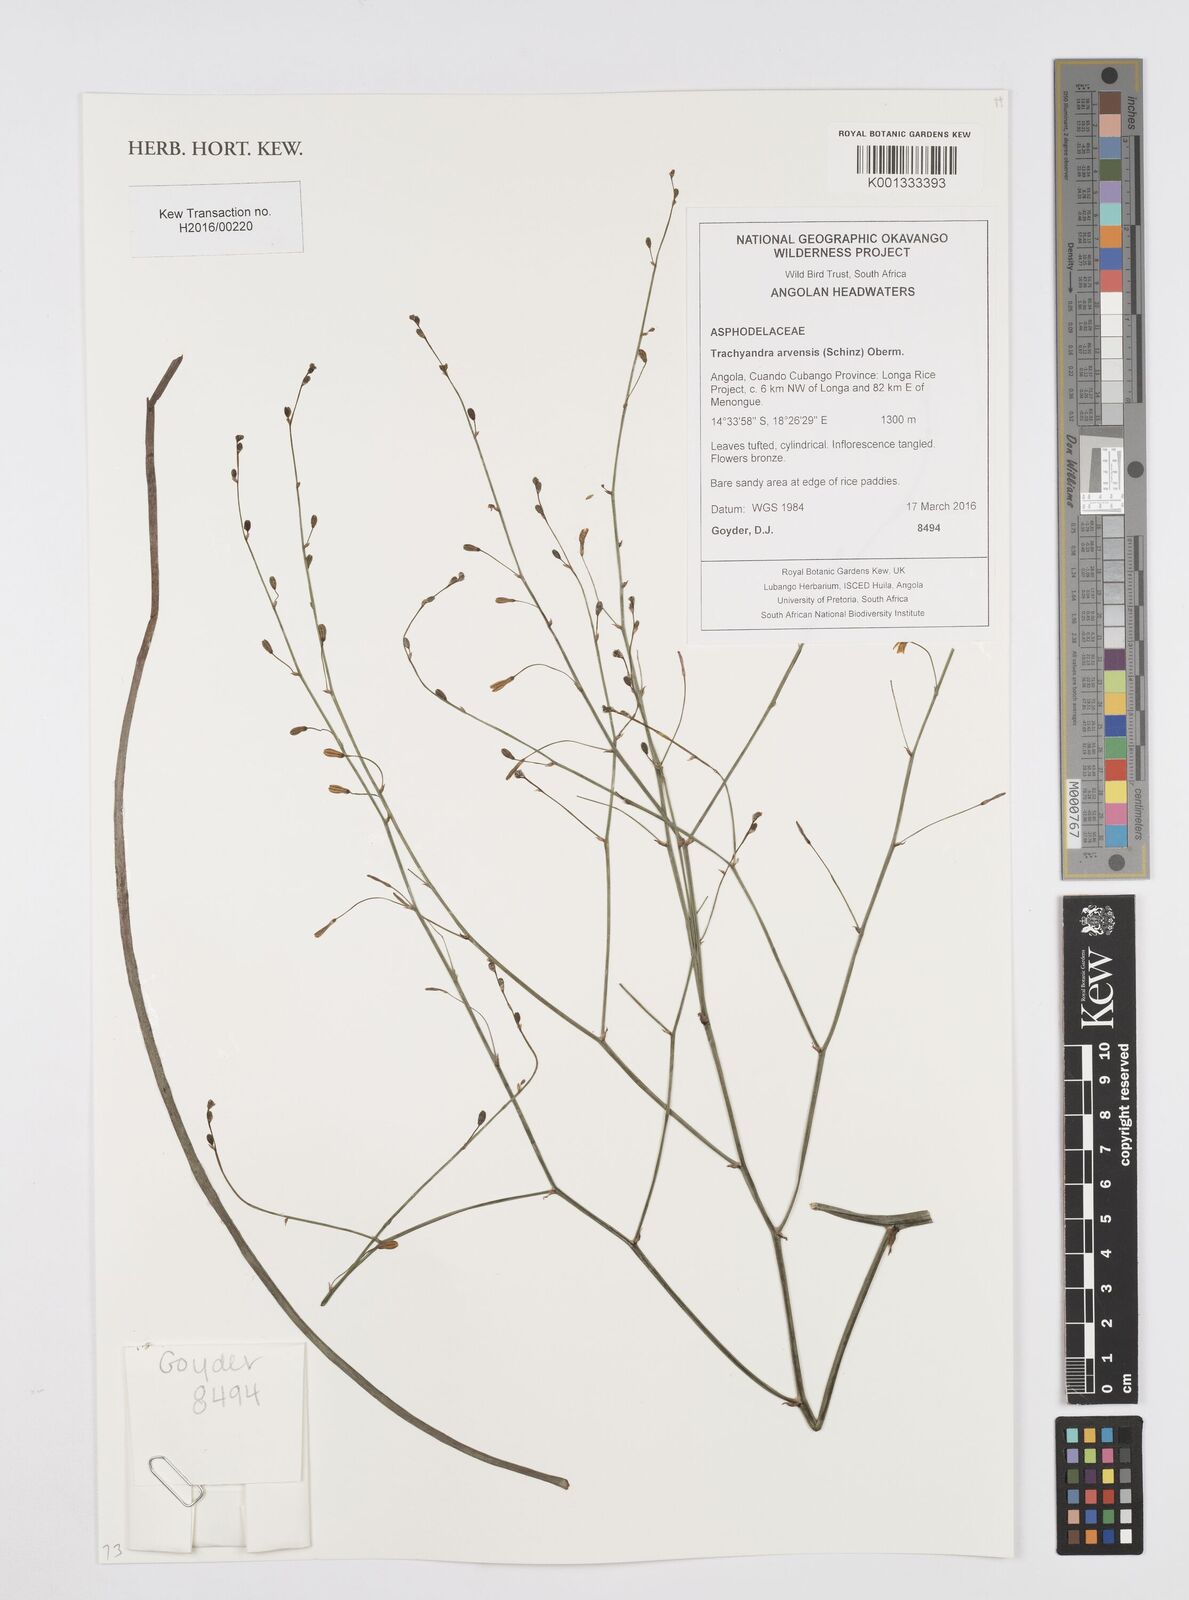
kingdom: Plantae
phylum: Tracheophyta
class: Liliopsida
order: Asparagales
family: Asphodelaceae
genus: Trachyandra
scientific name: Trachyandra arvensis
